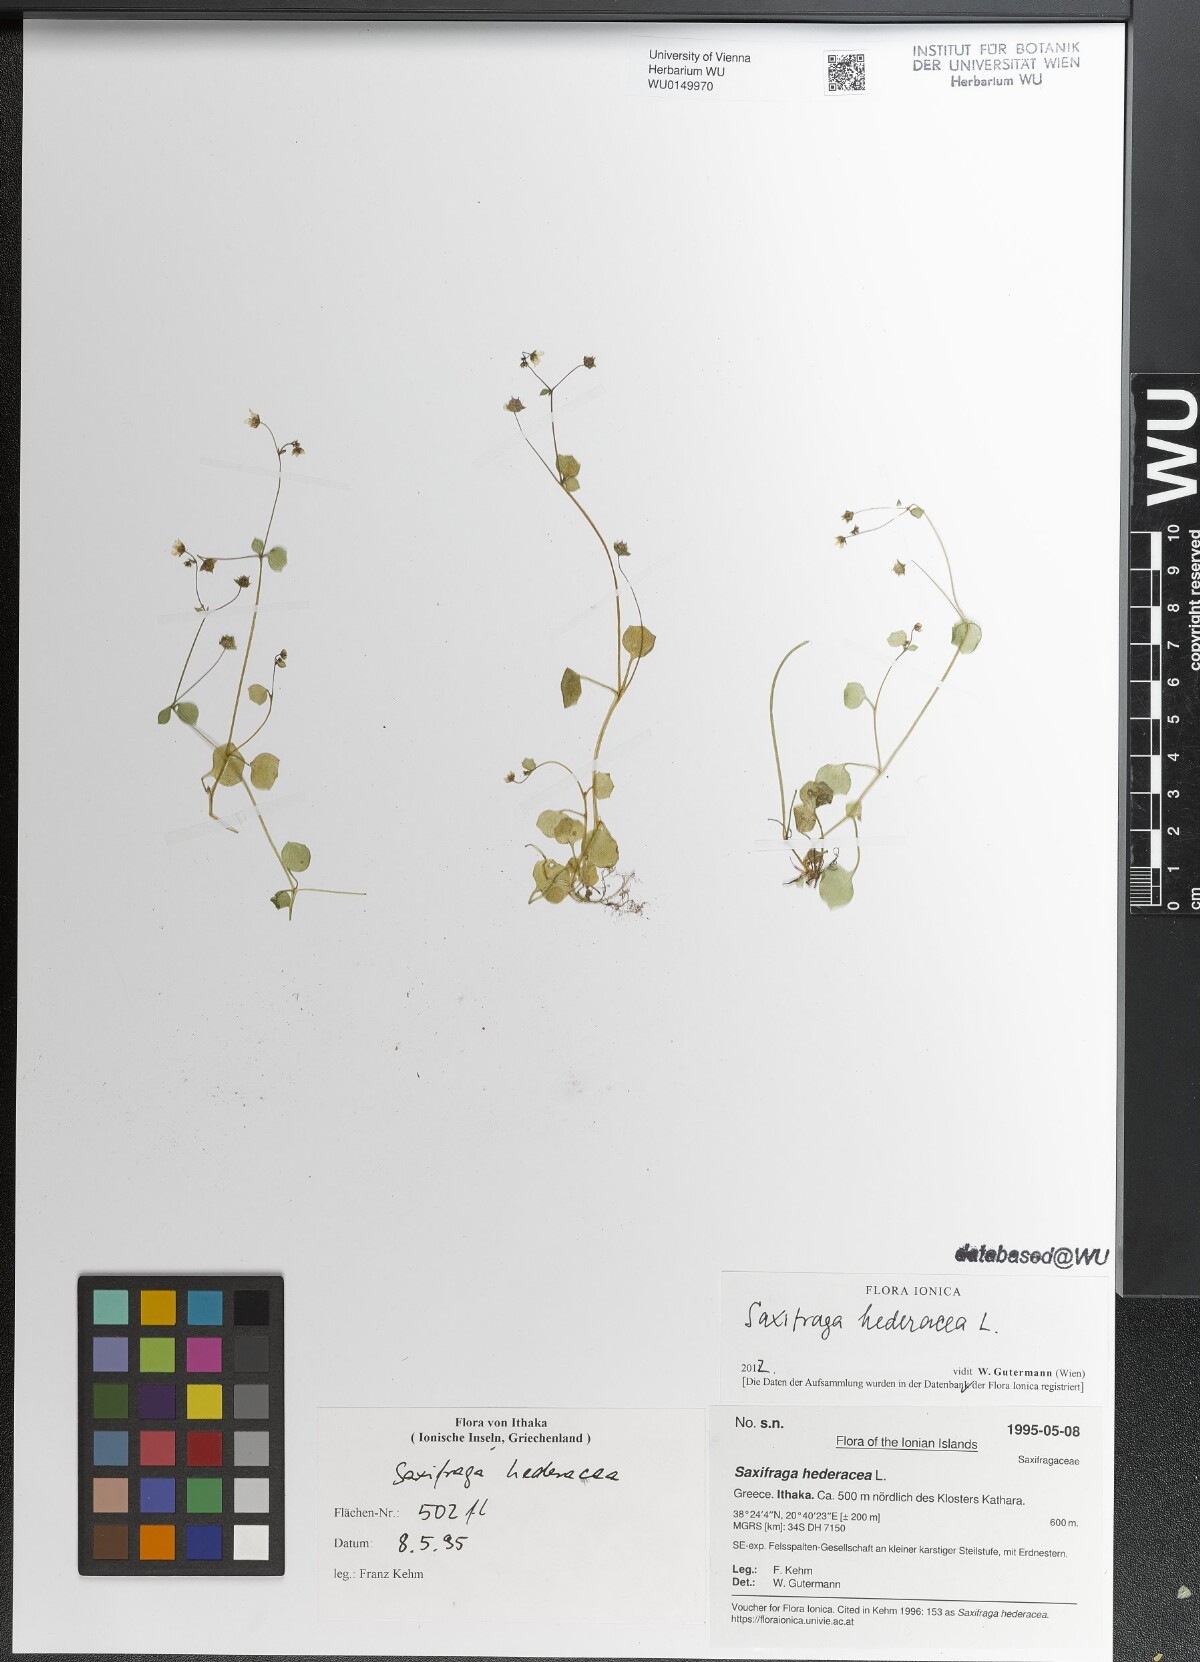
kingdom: Plantae
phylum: Tracheophyta
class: Magnoliopsida
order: Saxifragales
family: Saxifragaceae
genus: Saxifraga
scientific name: Saxifraga hederacea
